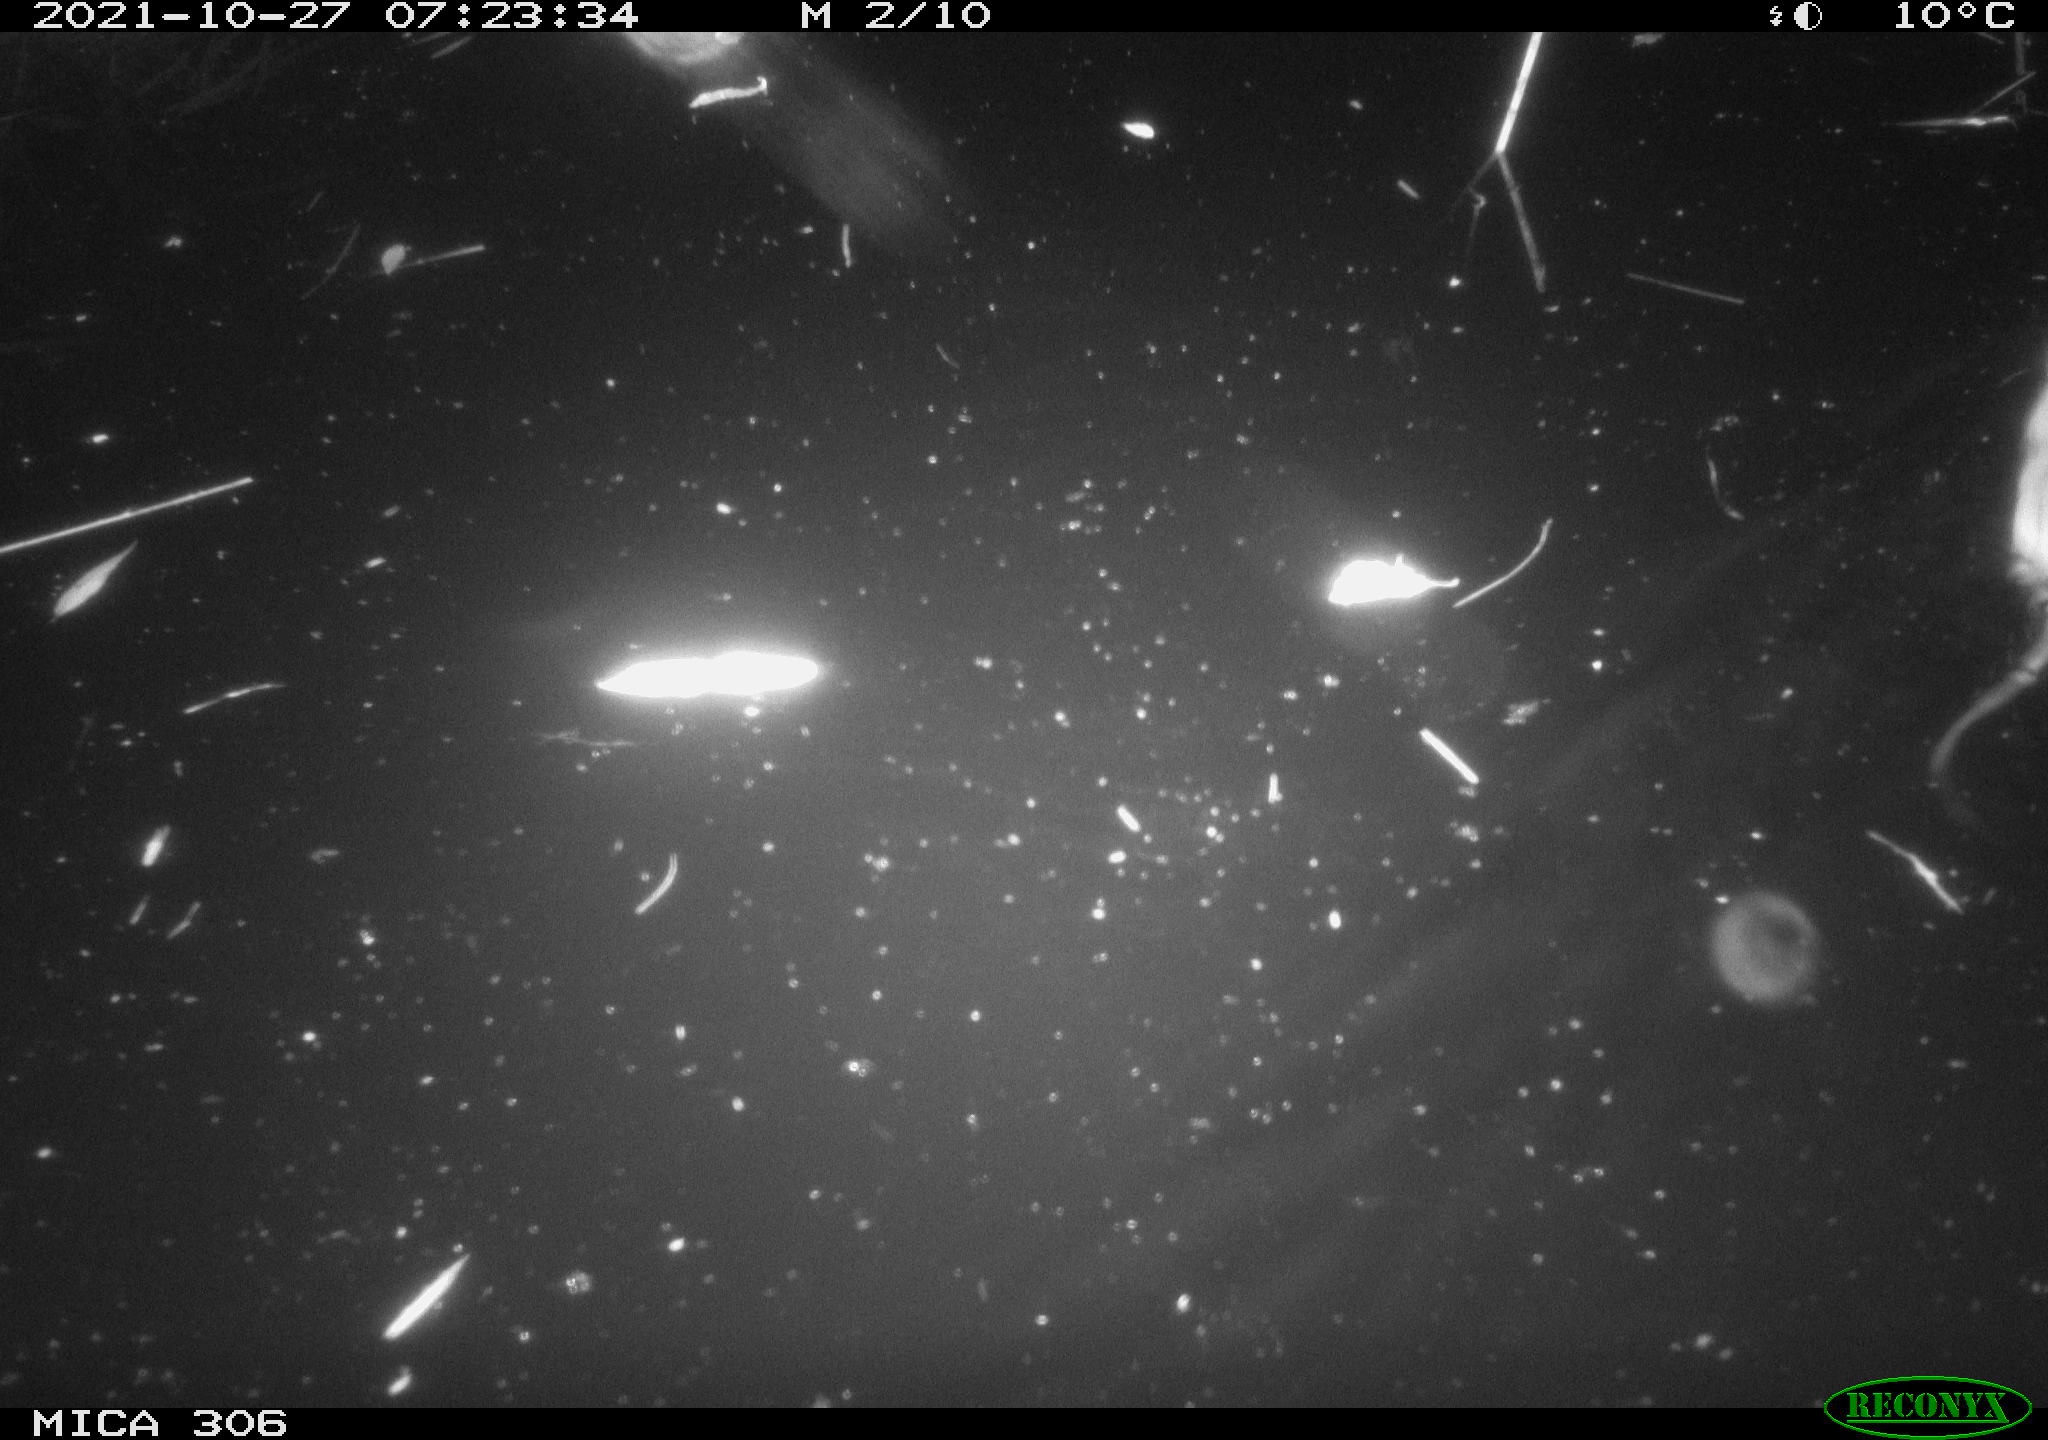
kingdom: Animalia
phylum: Chordata
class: Mammalia
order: Rodentia
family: Cricetidae
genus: Ondatra
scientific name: Ondatra zibethicus
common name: Muskrat
